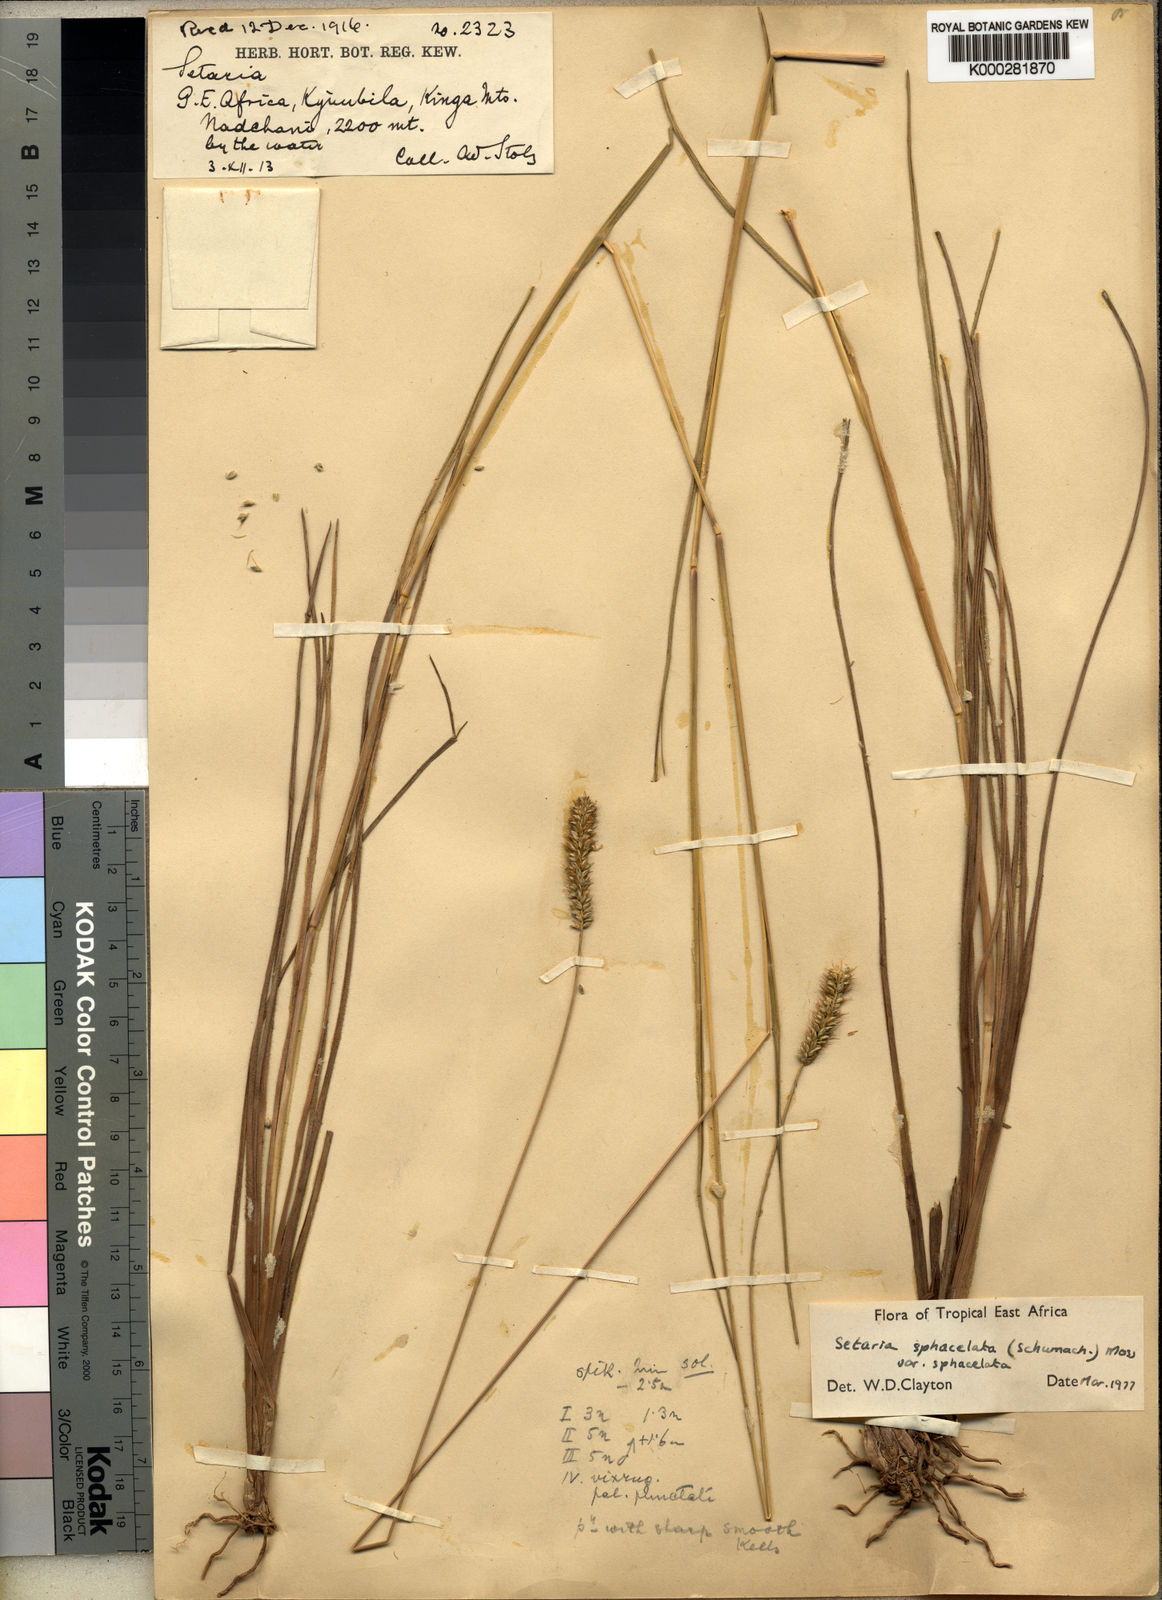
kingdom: Plantae
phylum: Tracheophyta
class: Liliopsida
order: Poales
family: Poaceae
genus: Setaria
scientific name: Setaria sphacelata
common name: African bristlegrass
